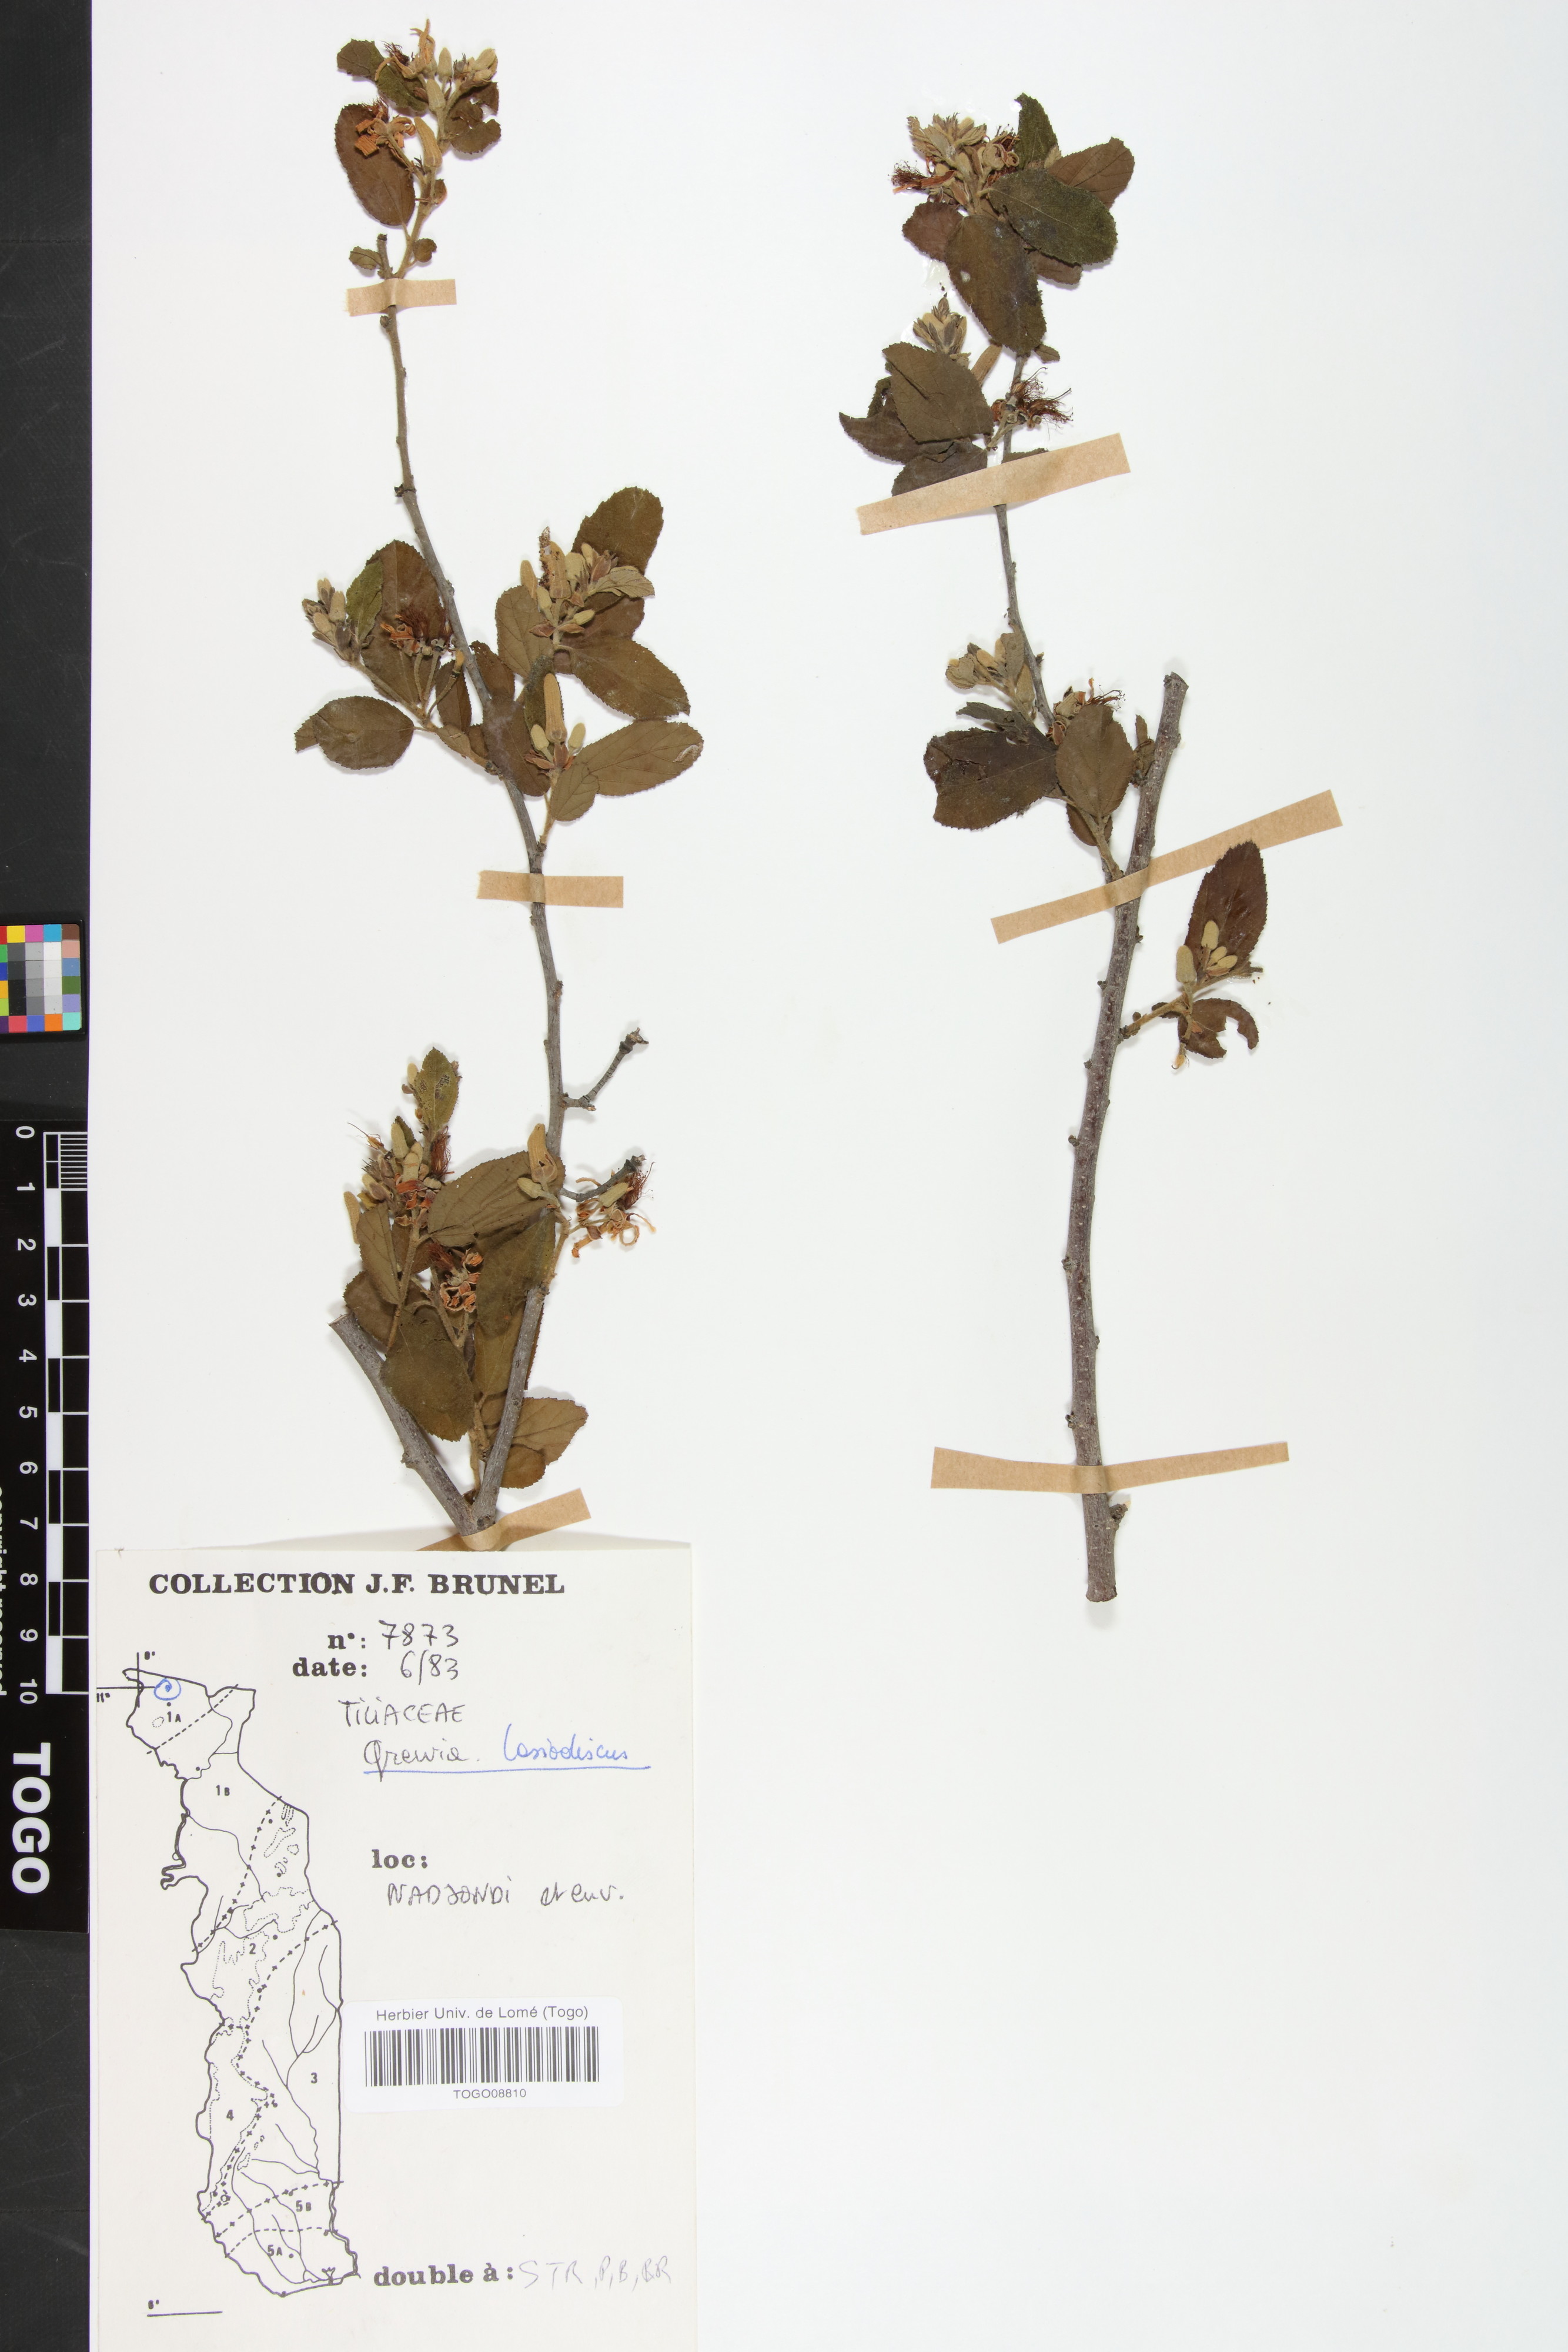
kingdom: Plantae
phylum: Tracheophyta
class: Magnoliopsida
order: Malvales
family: Malvaceae
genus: Grewia
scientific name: Grewia lasiodiscus
